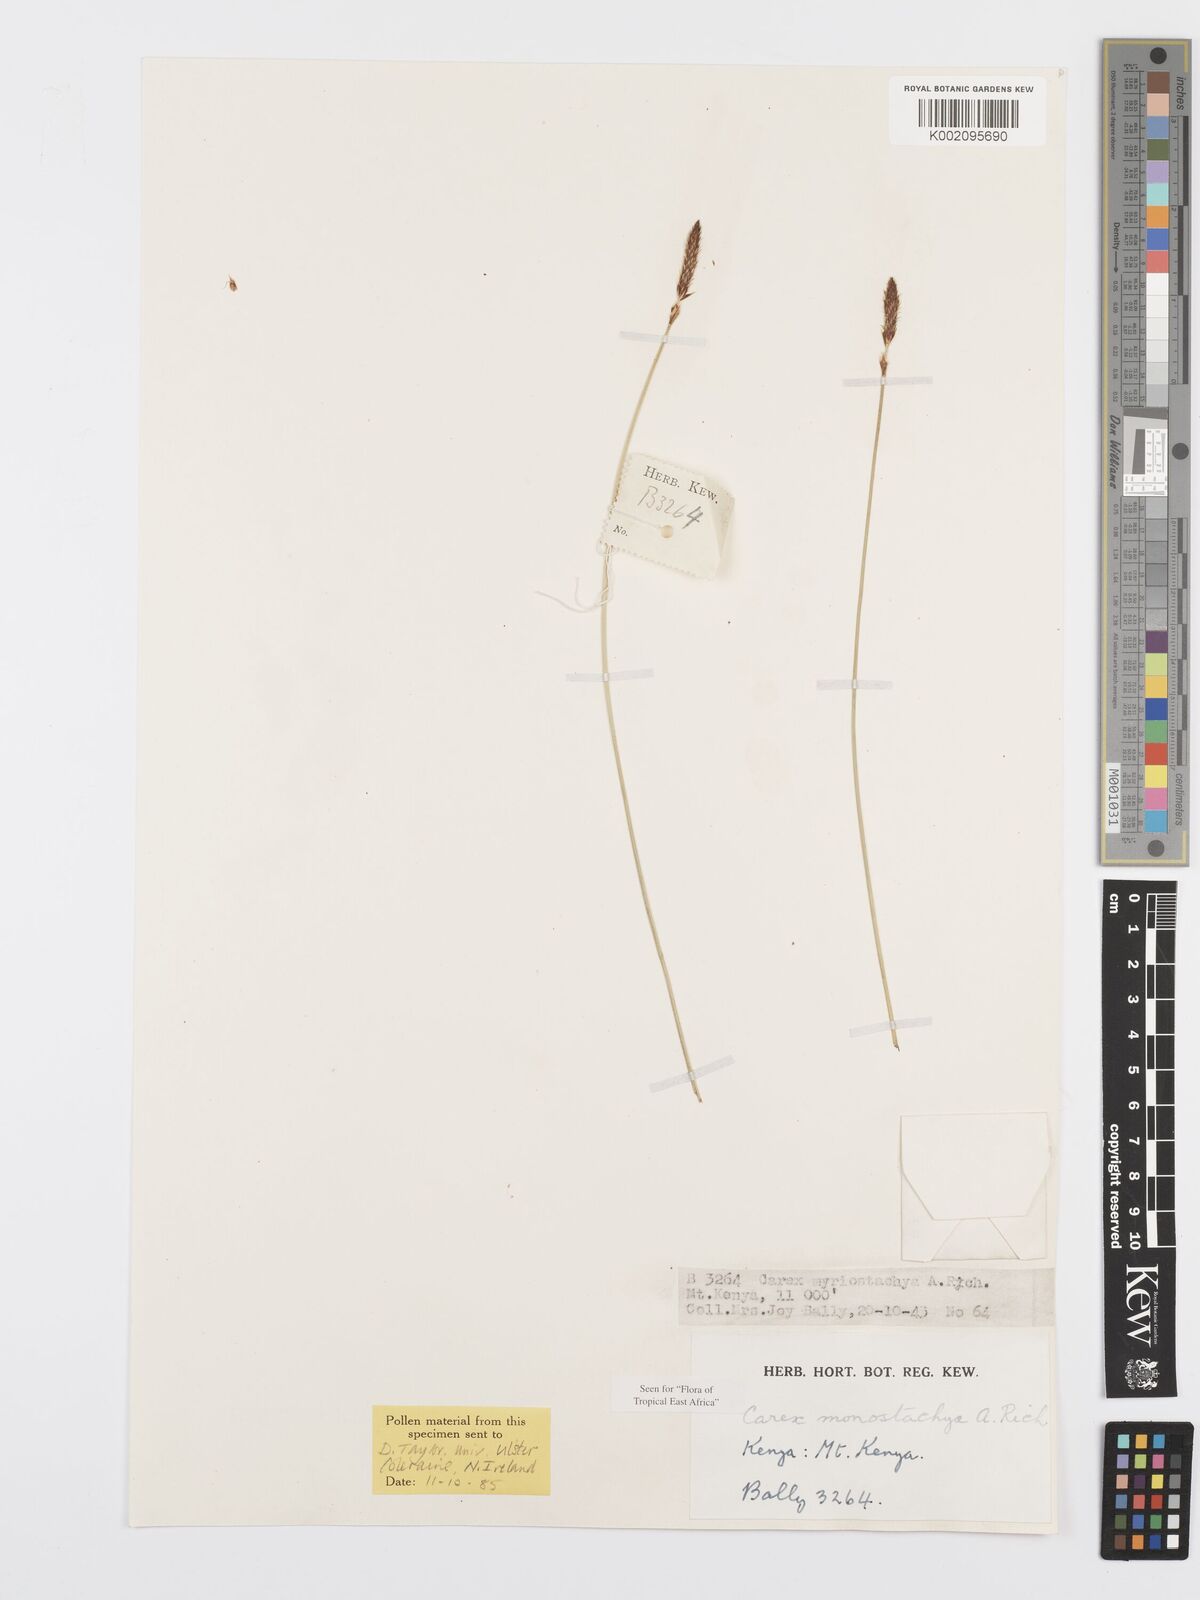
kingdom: Plantae
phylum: Tracheophyta
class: Liliopsida
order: Poales
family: Cyperaceae
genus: Carex
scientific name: Carex monostachya
